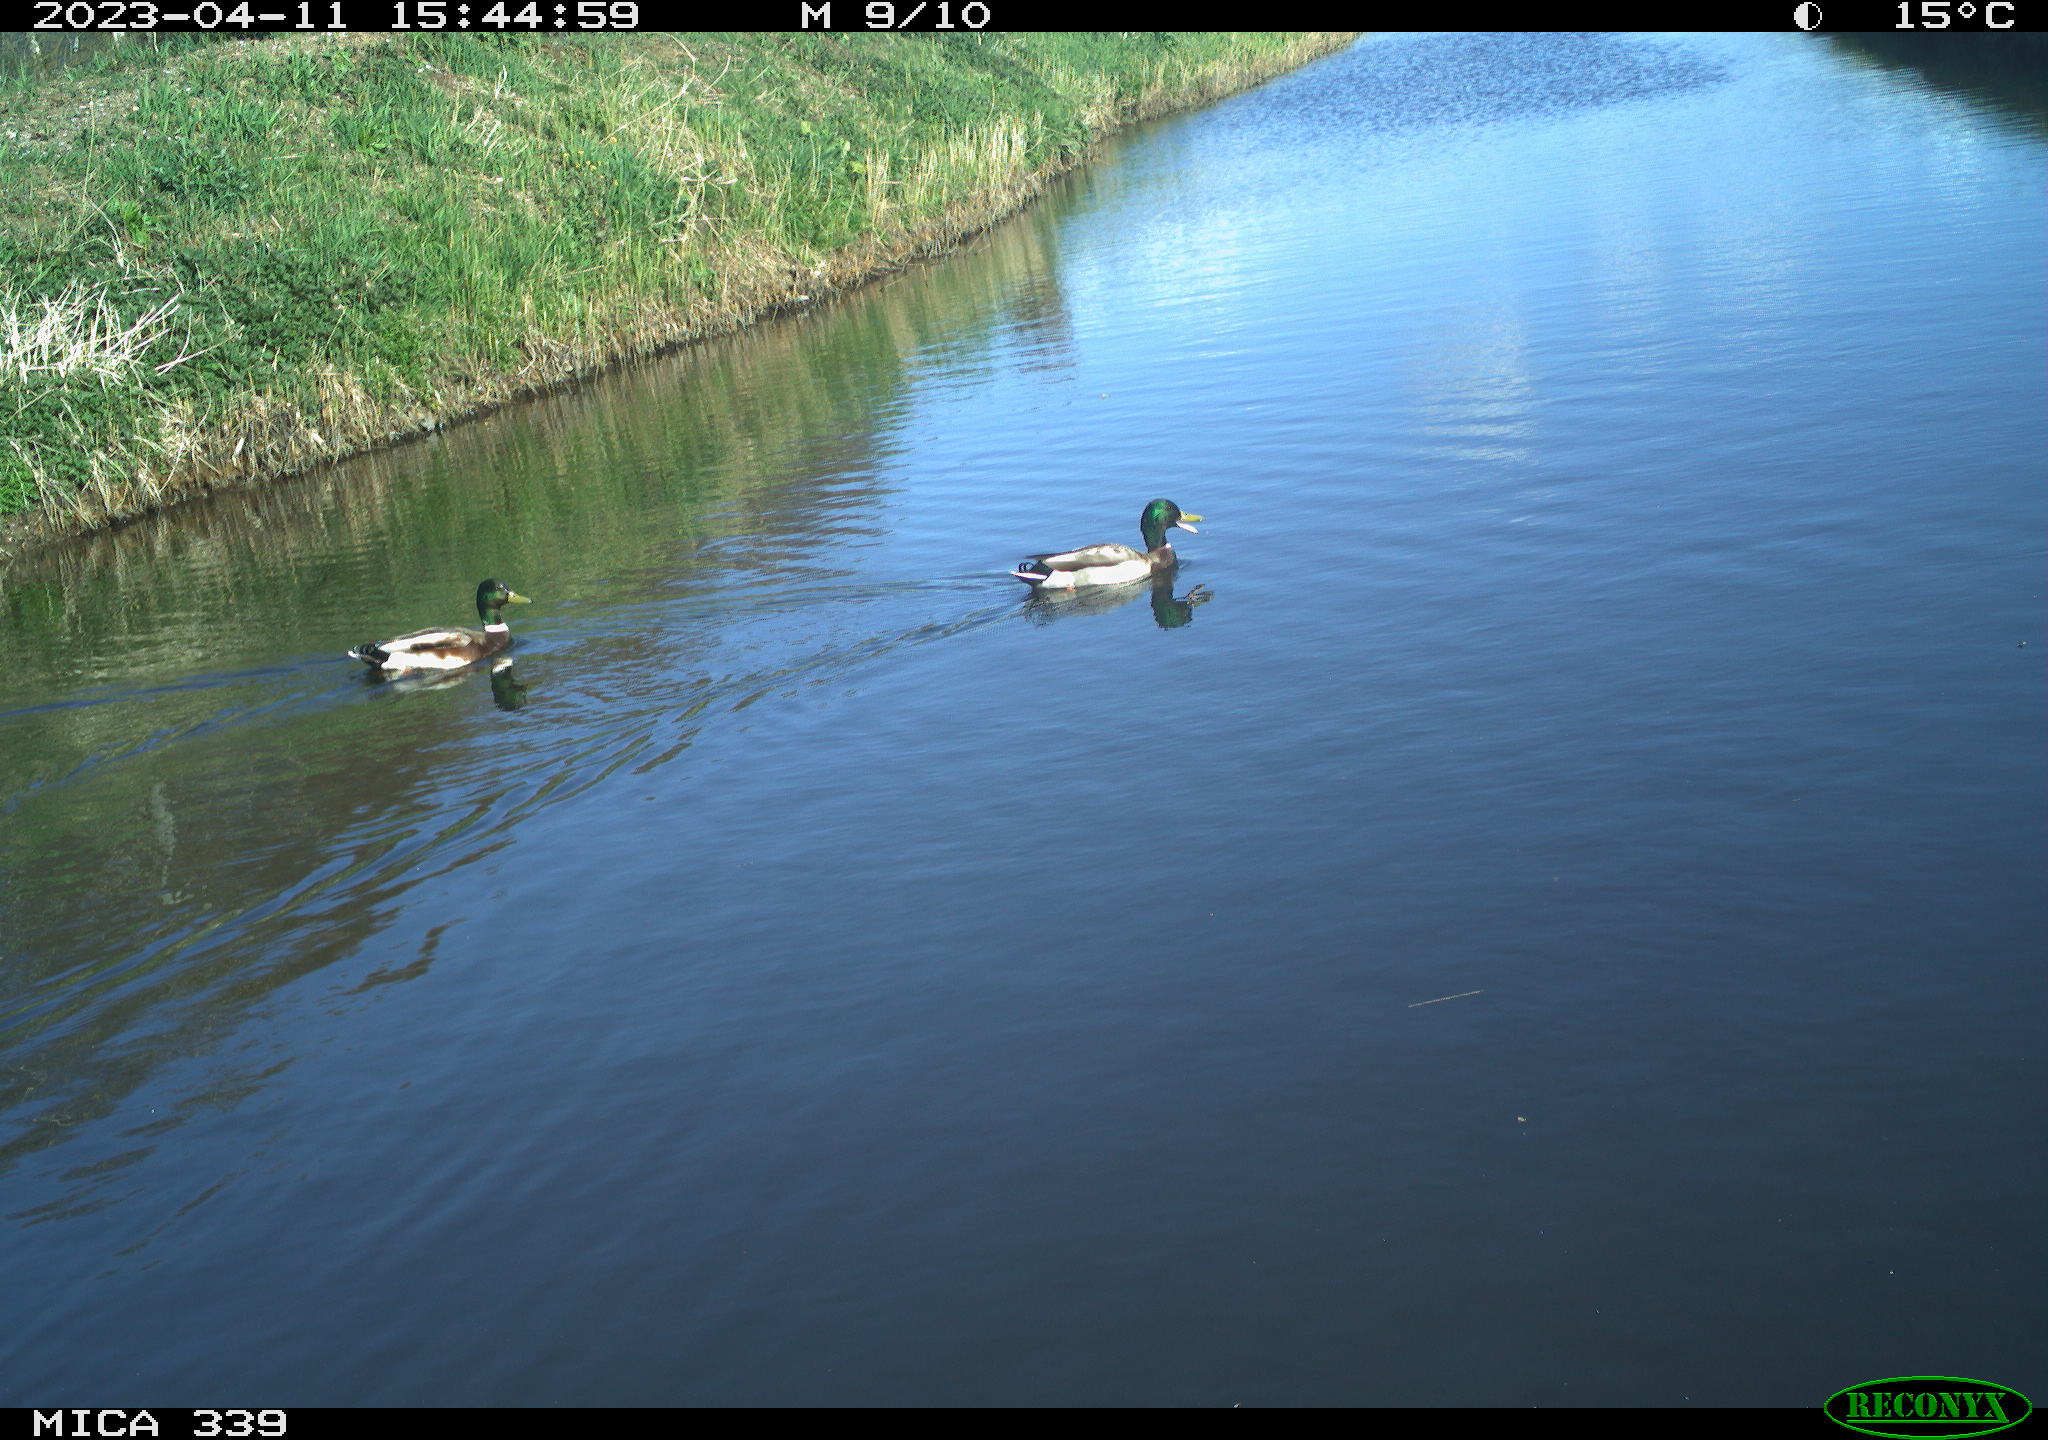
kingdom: Animalia
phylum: Chordata
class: Aves
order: Anseriformes
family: Anatidae
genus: Anas
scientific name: Anas
